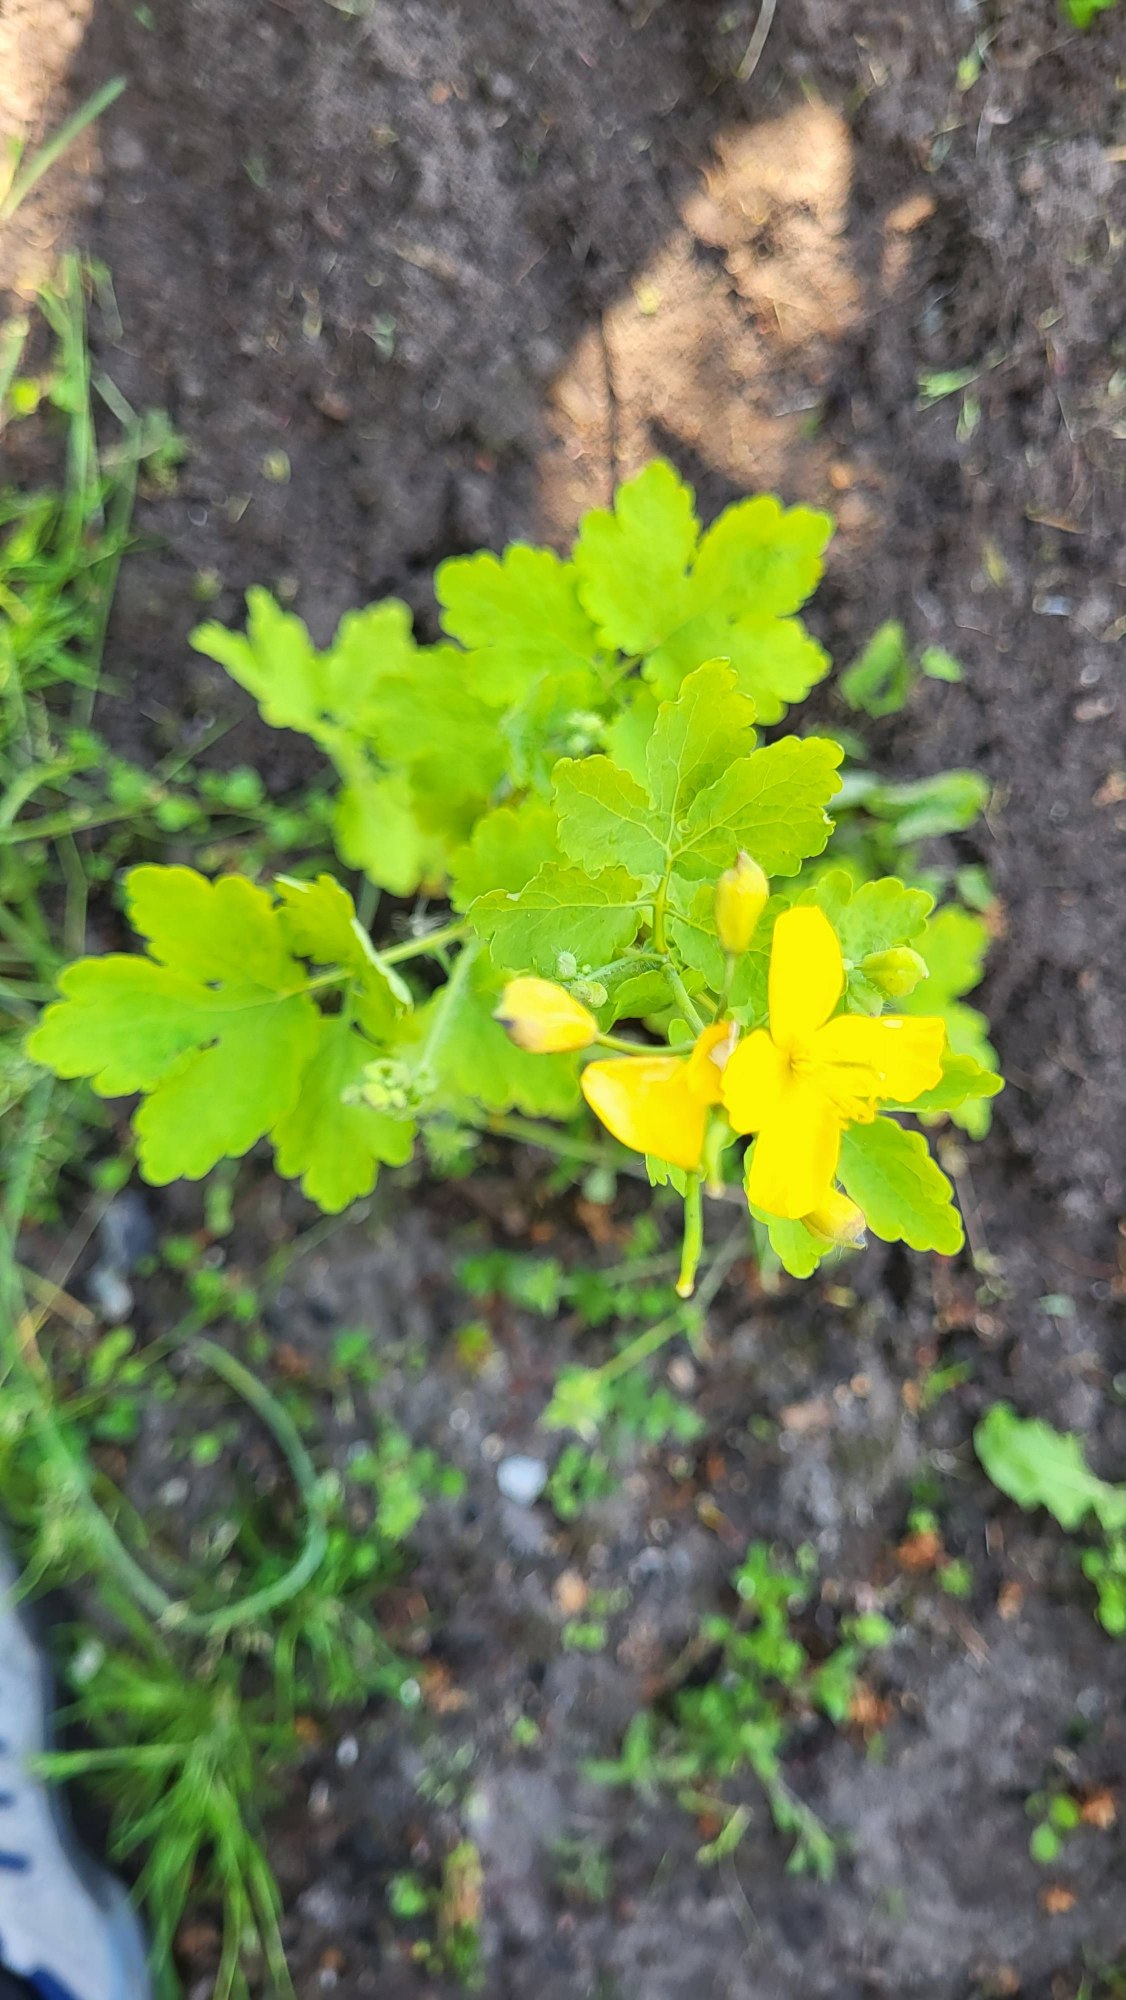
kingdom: Plantae
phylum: Tracheophyta
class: Magnoliopsida
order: Ranunculales
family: Papaveraceae
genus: Chelidonium
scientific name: Chelidonium majus
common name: Svaleurt
